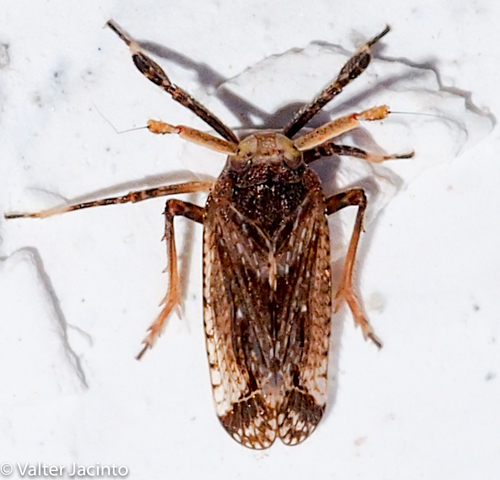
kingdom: Animalia
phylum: Arthropoda
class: Insecta
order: Hemiptera
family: Delphacidae
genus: Asiraca
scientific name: Asiraca clavicornis
